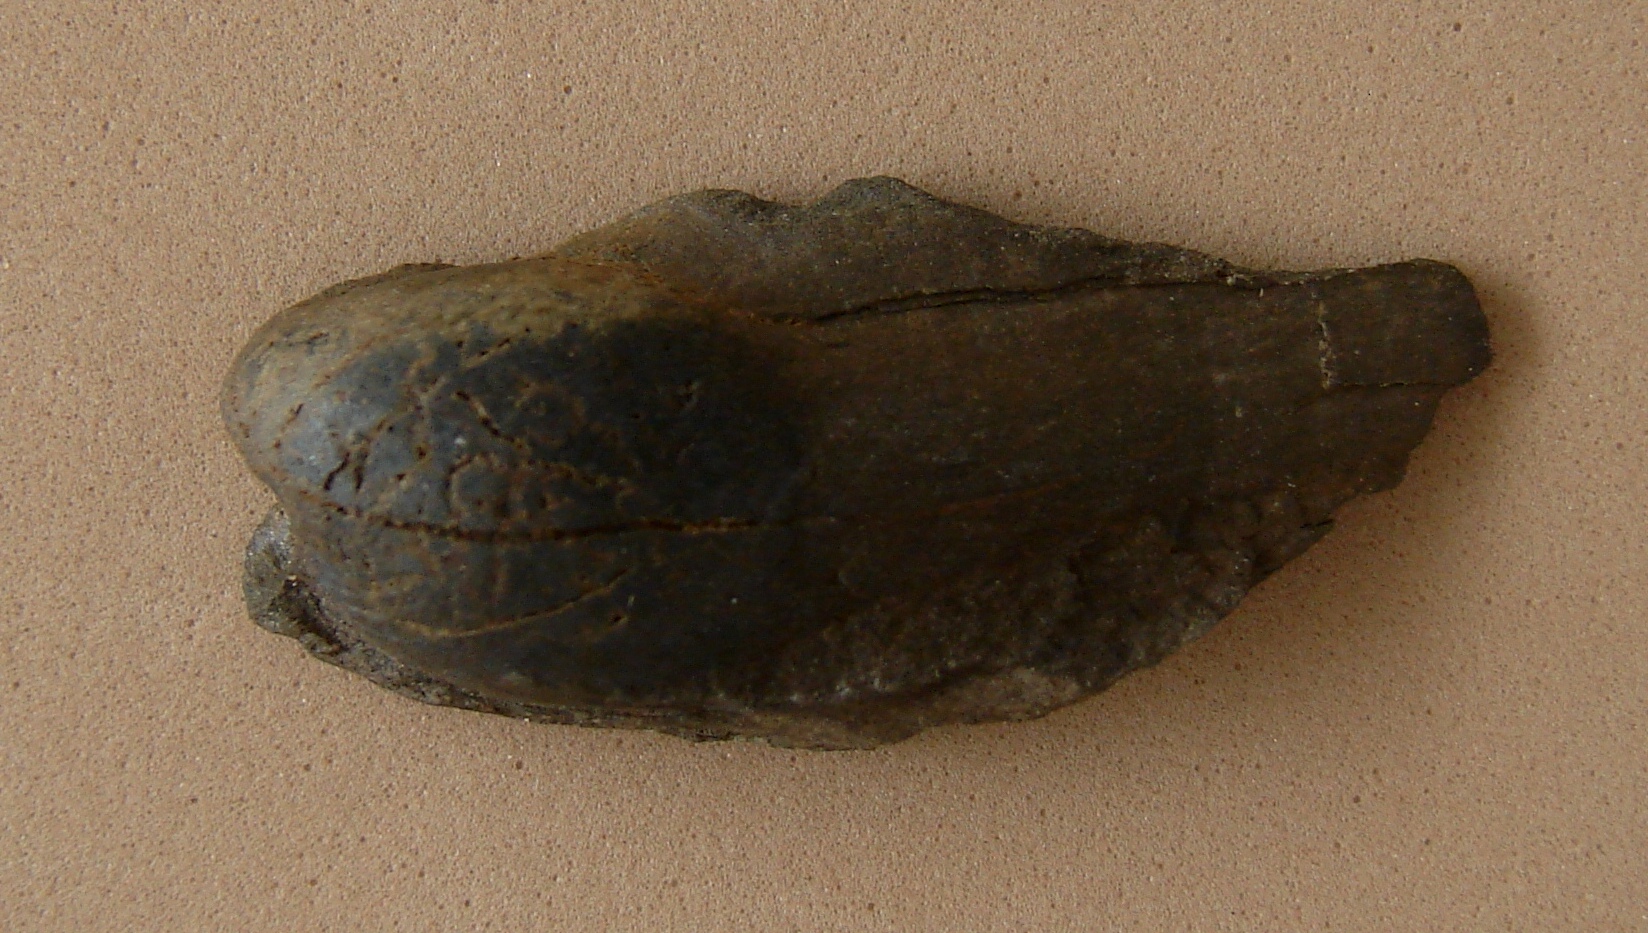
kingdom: Animalia
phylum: Mollusca
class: Bivalvia
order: Megalodontida
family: Mecynodontidae
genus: Mecynodon
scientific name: Mecynodon
